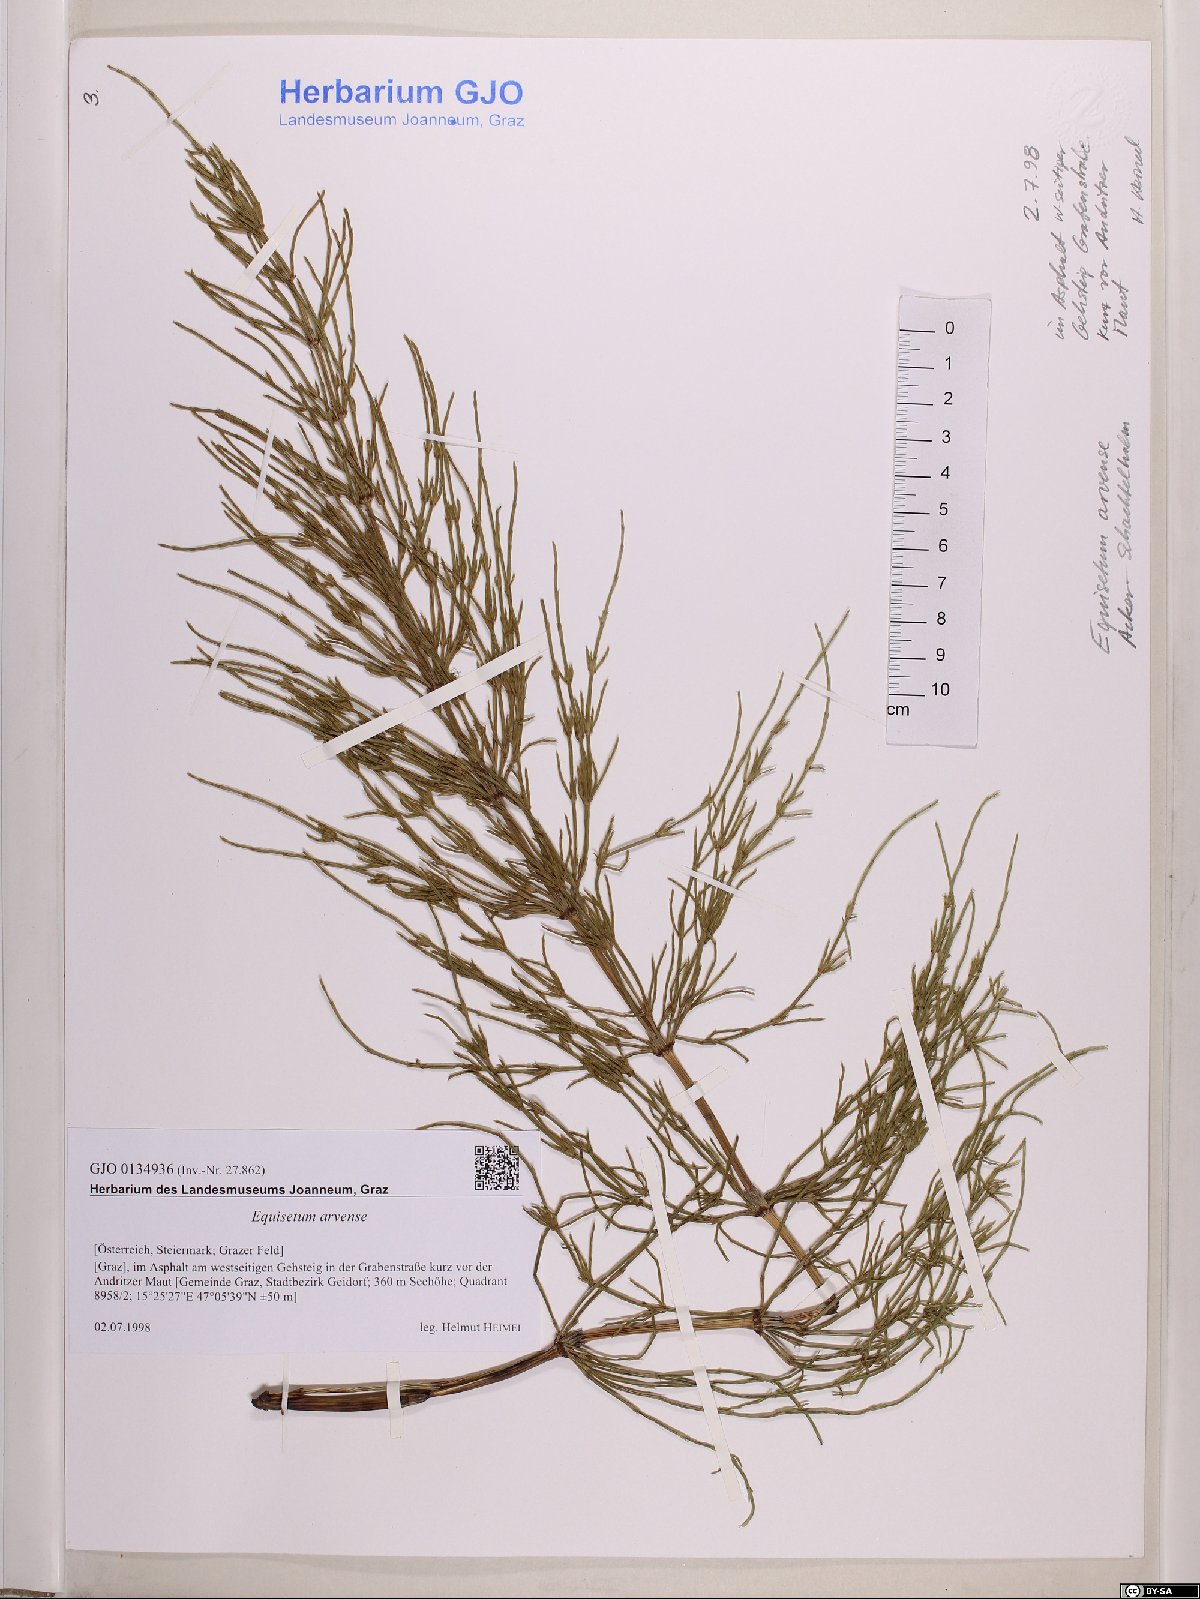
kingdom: Plantae
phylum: Tracheophyta
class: Polypodiopsida
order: Equisetales
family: Equisetaceae
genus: Equisetum
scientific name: Equisetum arvense
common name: Field horsetail
